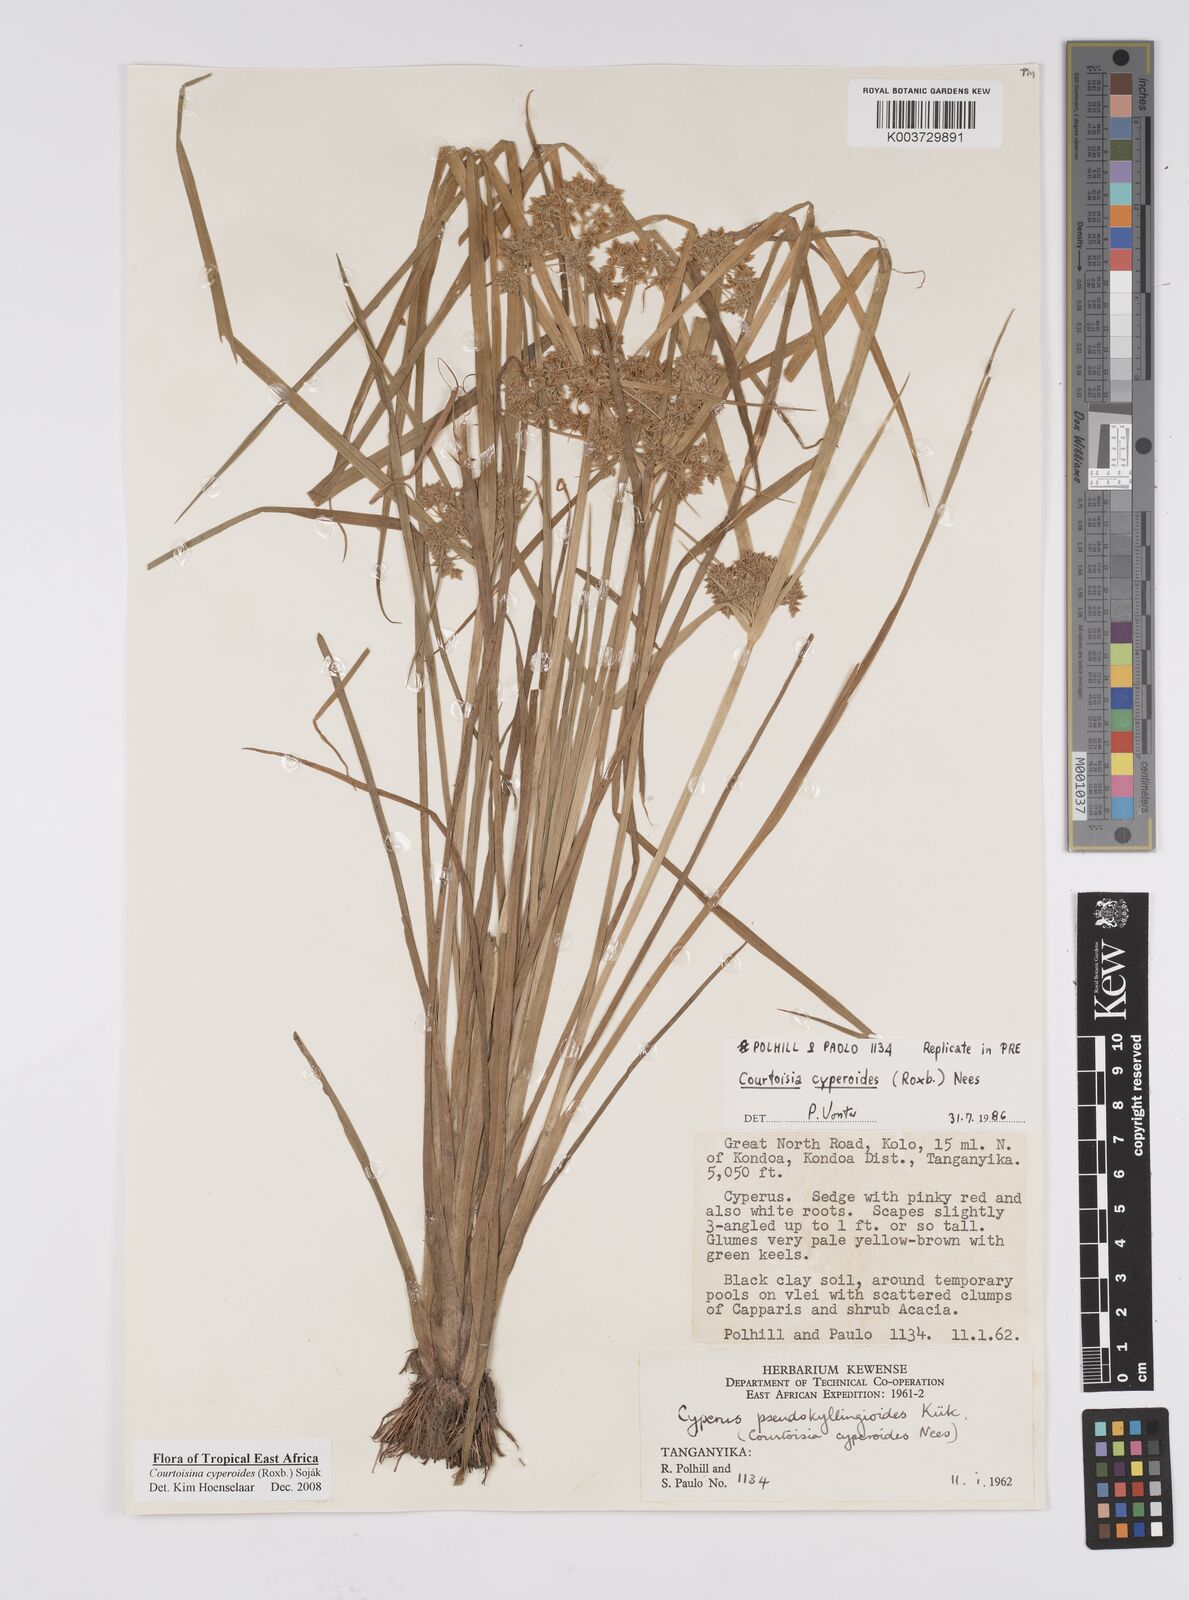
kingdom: Plantae
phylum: Tracheophyta
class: Liliopsida
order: Poales
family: Cyperaceae
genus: Cyperus
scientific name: Cyperus cyperoides
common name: Pacific island flat sedge
